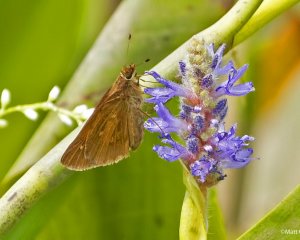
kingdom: Animalia
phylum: Arthropoda
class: Insecta
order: Lepidoptera
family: Hesperiidae
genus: Poanes
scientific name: Poanes viator
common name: Broad-winged Skipper
